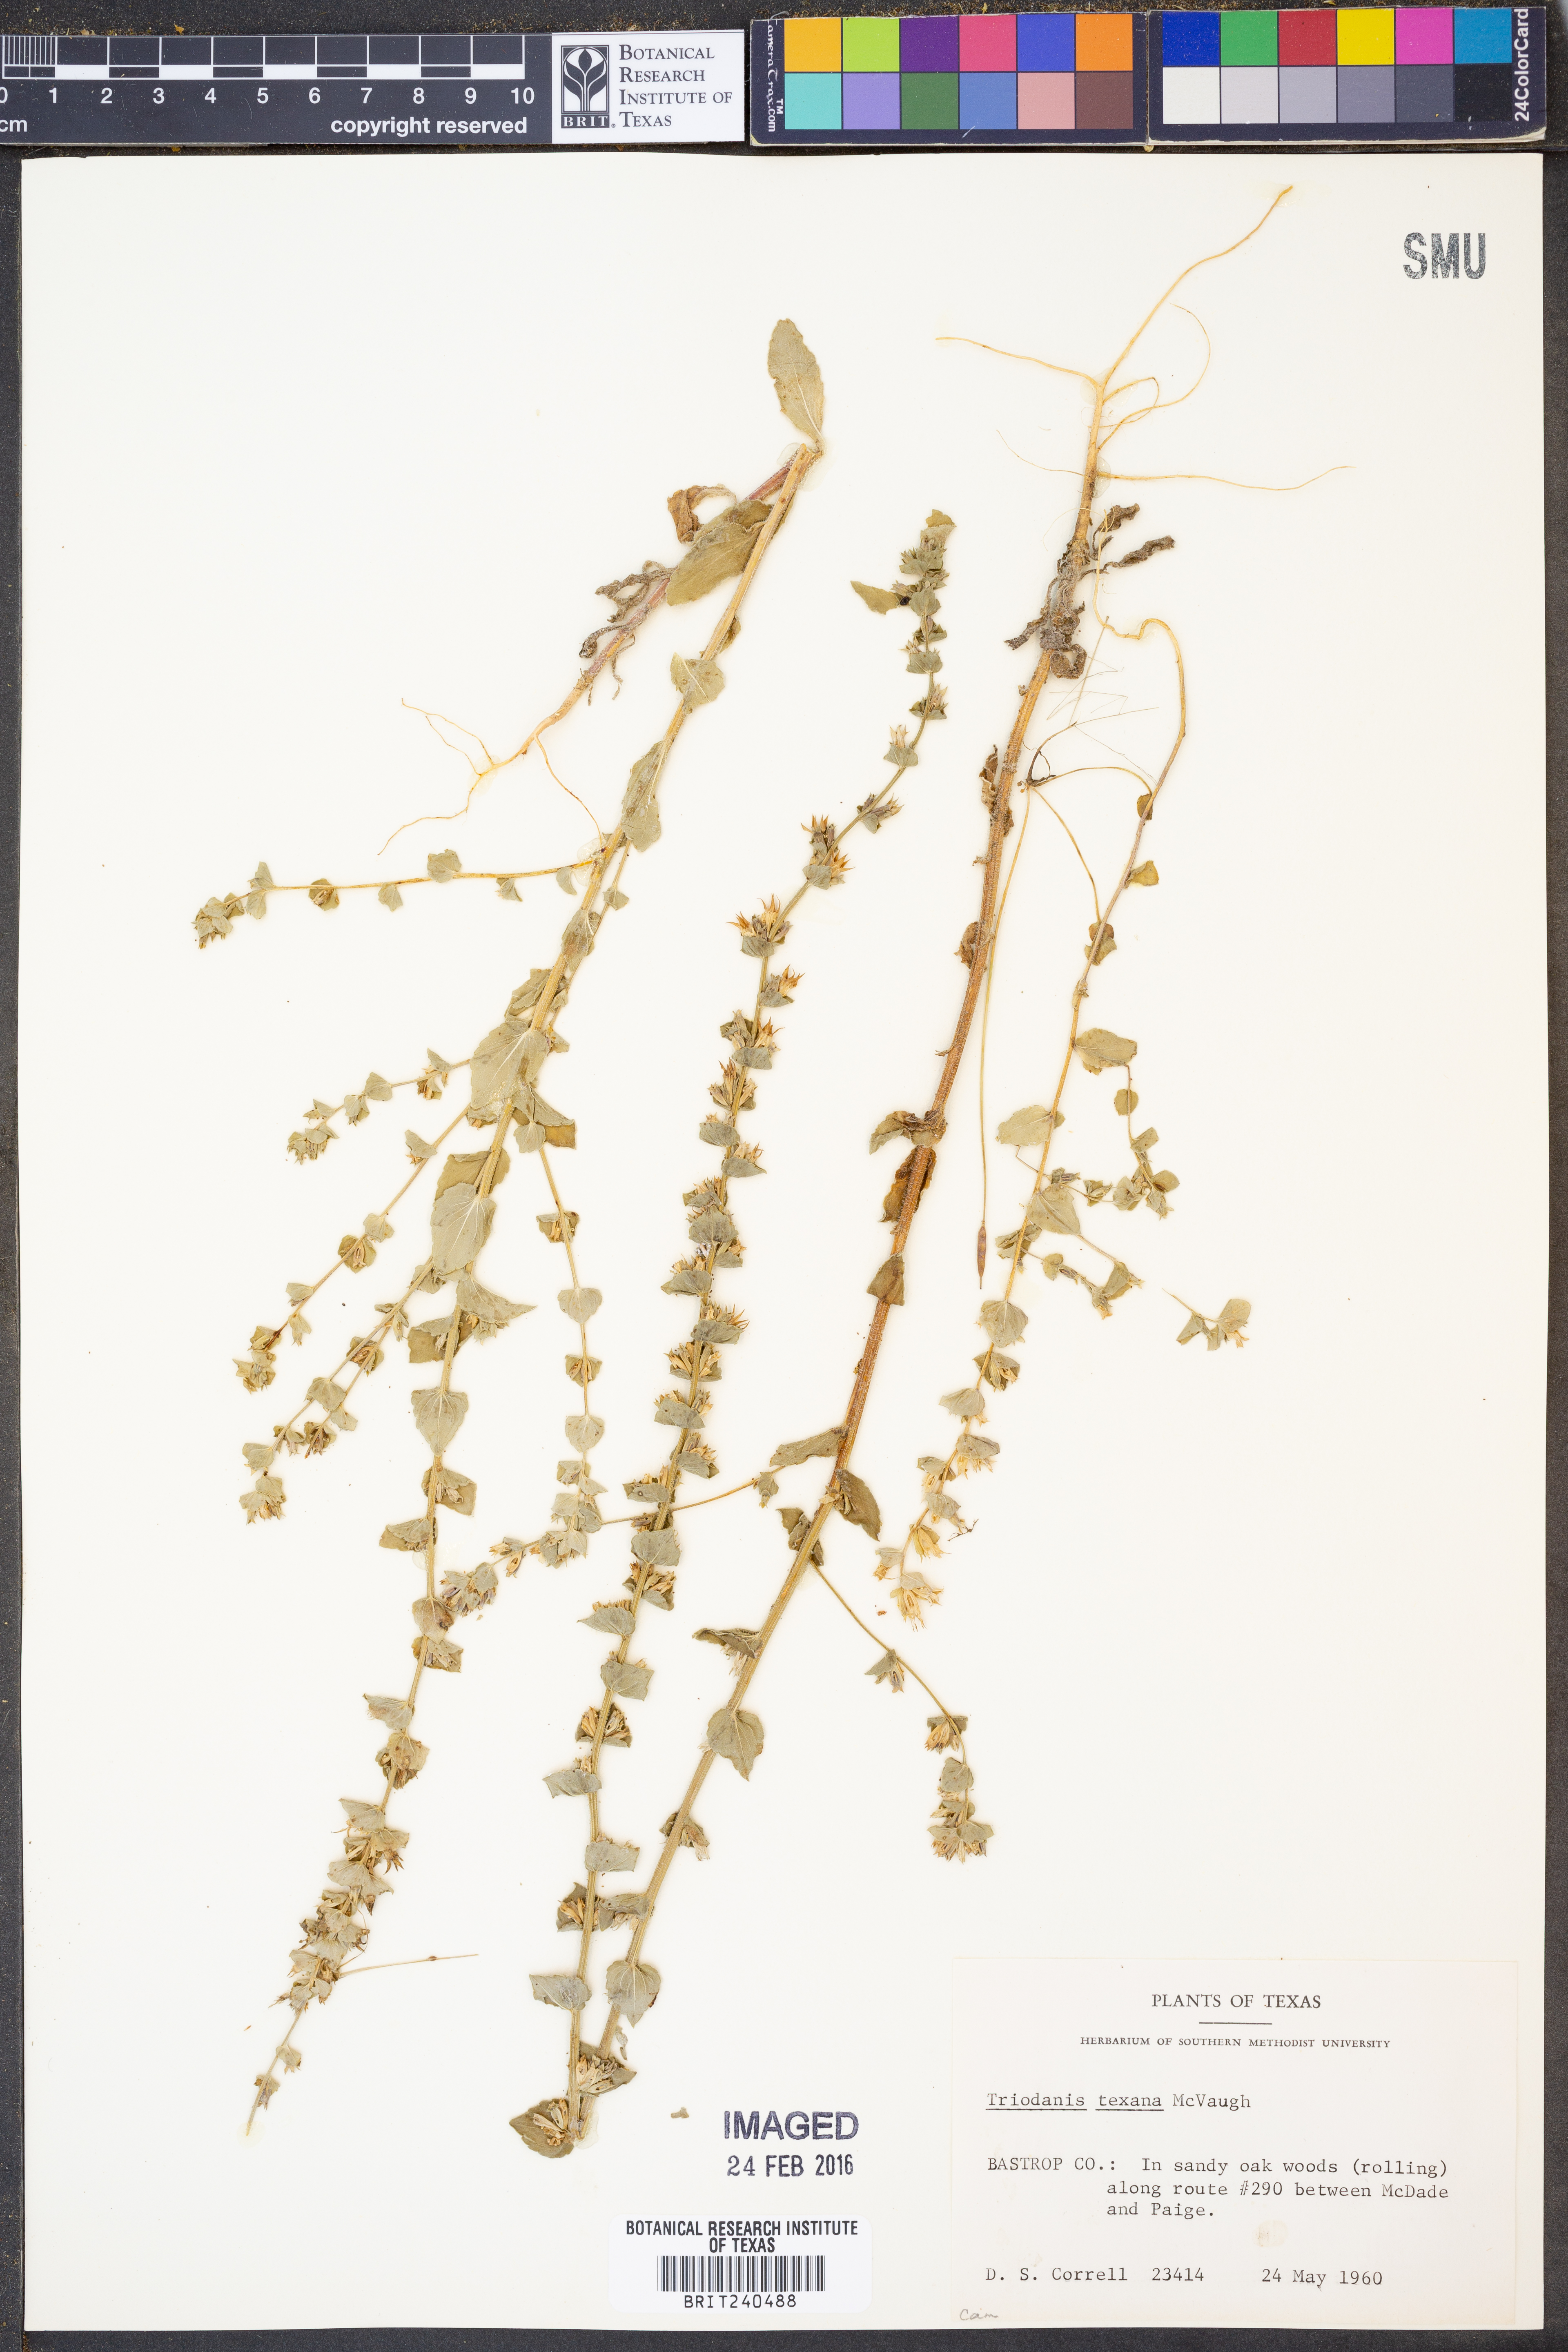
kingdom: Plantae
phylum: Tracheophyta
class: Magnoliopsida
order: Asterales
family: Campanulaceae
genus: Triodanis
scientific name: Triodanis texana
